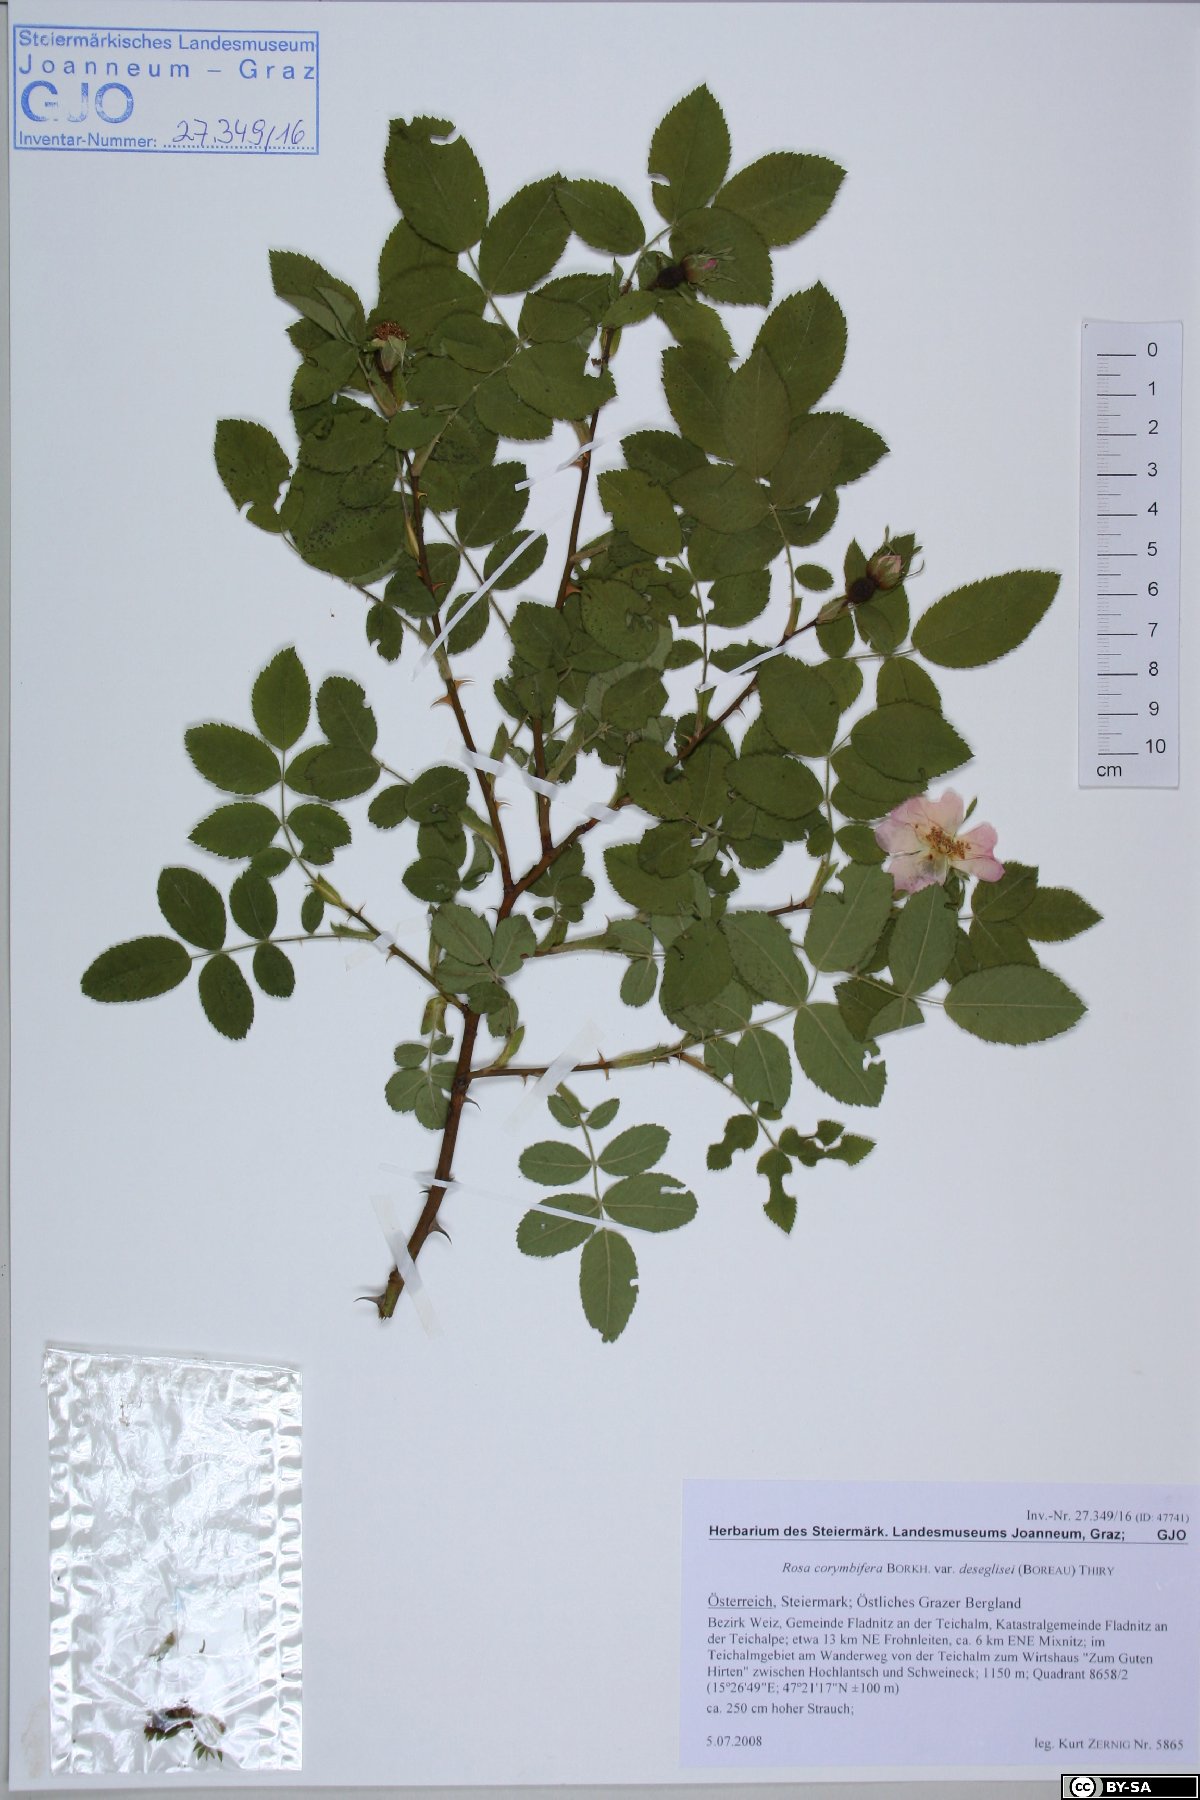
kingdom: Plantae
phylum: Tracheophyta
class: Magnoliopsida
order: Rosales
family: Rosaceae
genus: Rosa
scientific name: Rosa corymbifera
